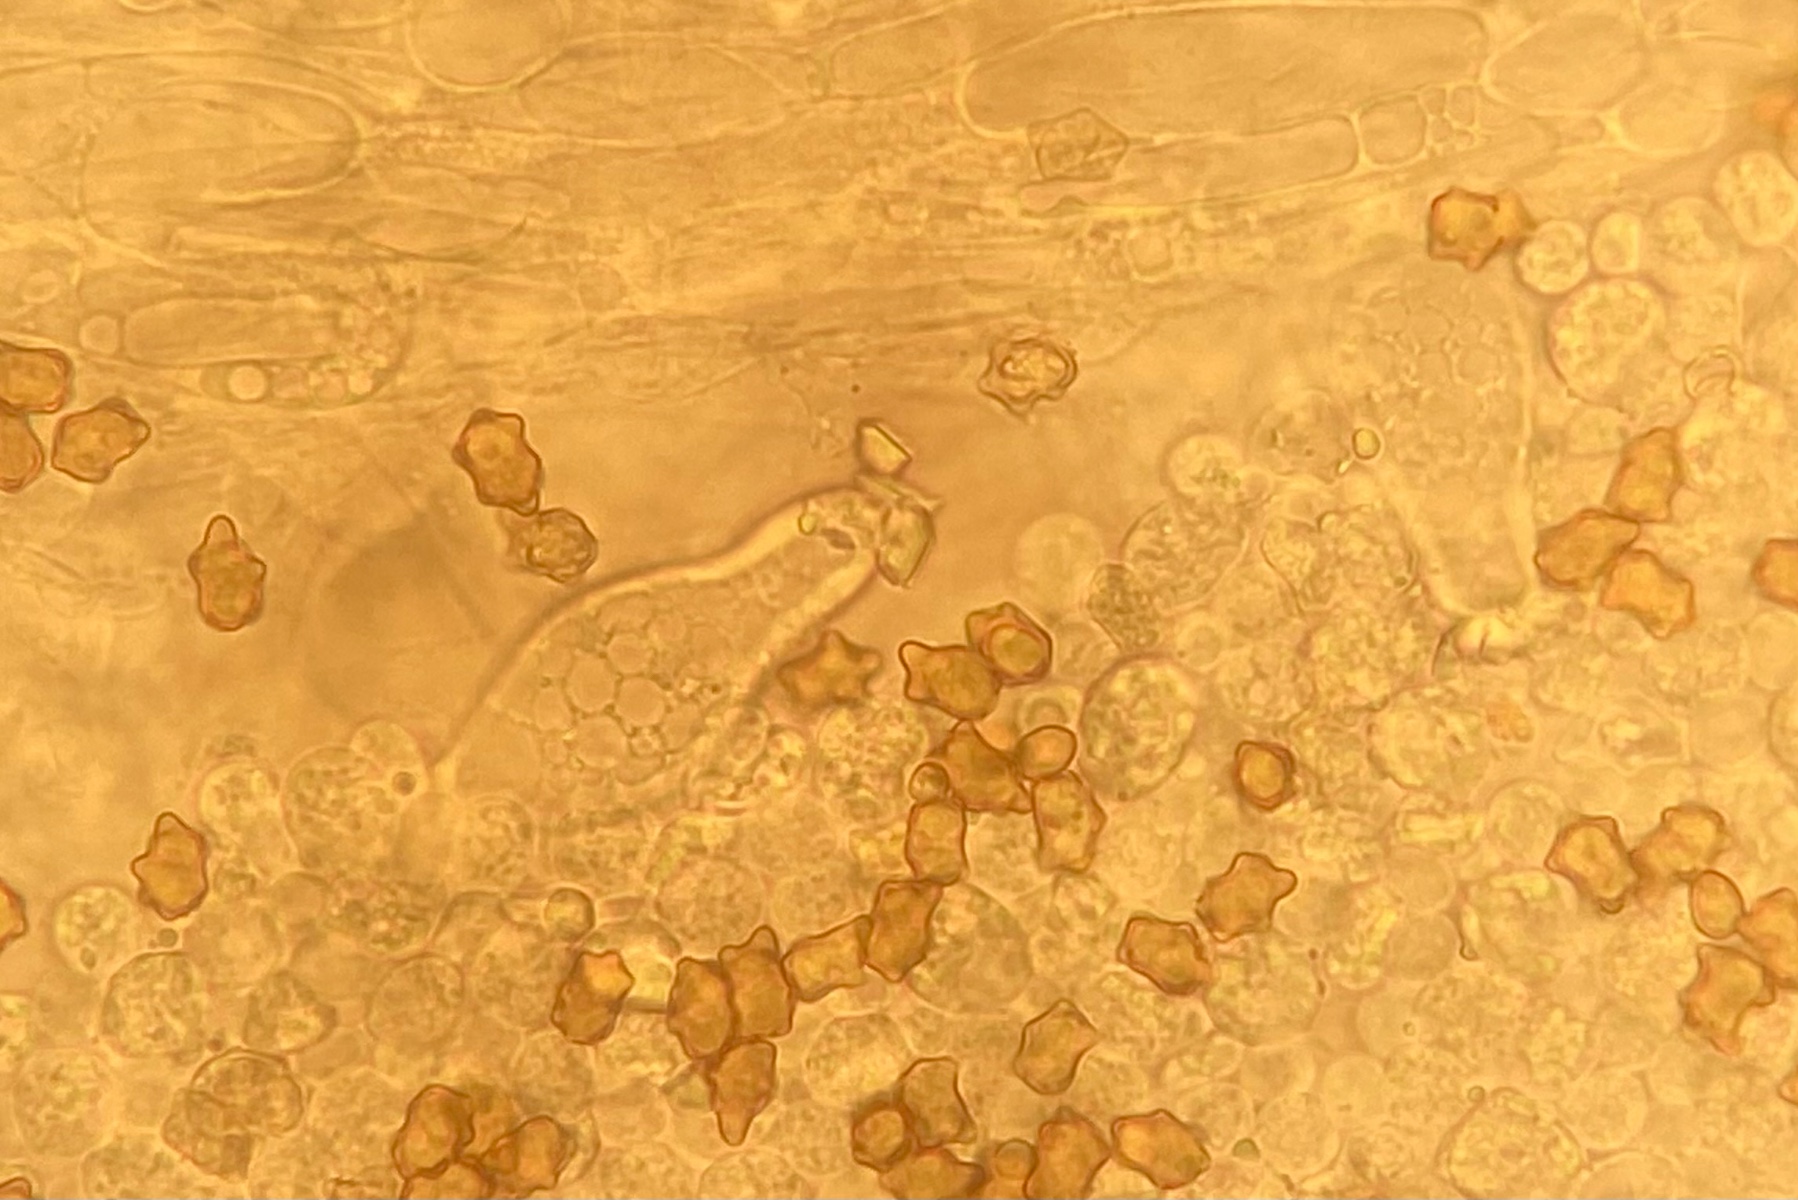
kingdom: Fungi
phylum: Basidiomycota
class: Agaricomycetes
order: Agaricales
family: Inocybaceae
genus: Inocybe
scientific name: Inocybe
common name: trævlhat
